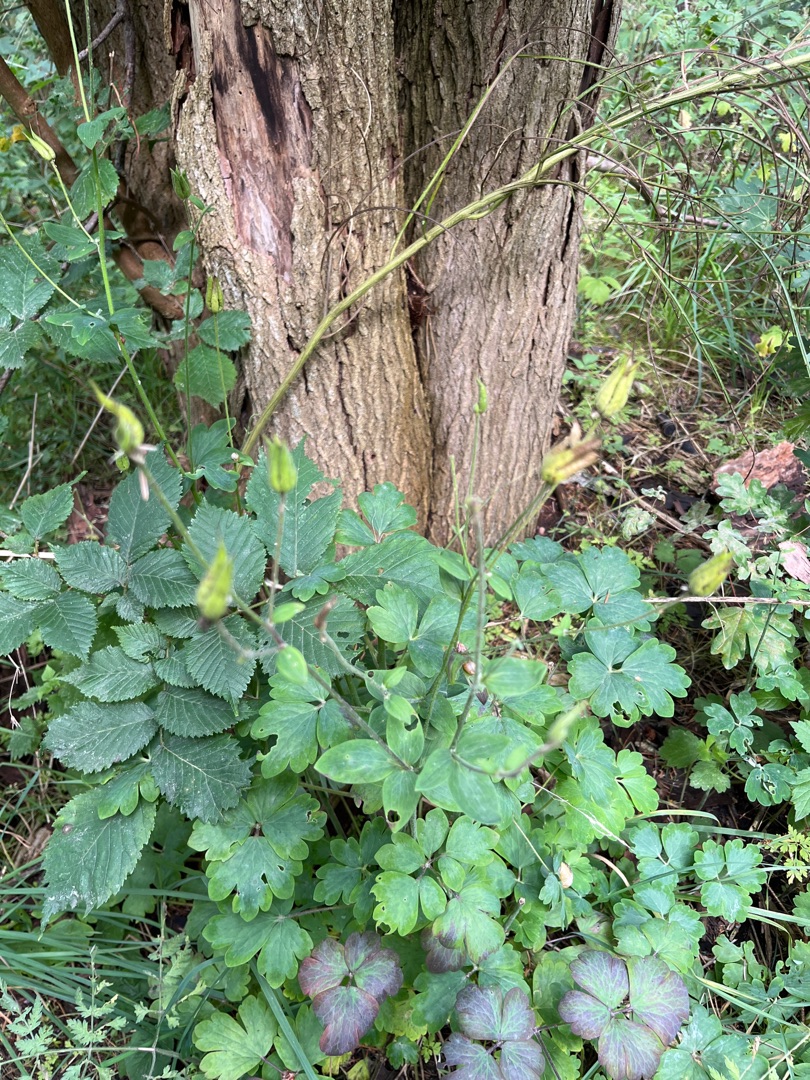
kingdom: Plantae
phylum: Tracheophyta
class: Magnoliopsida
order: Ranunculales
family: Ranunculaceae
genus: Aquilegia
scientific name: Aquilegia vulgaris
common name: Akeleje
